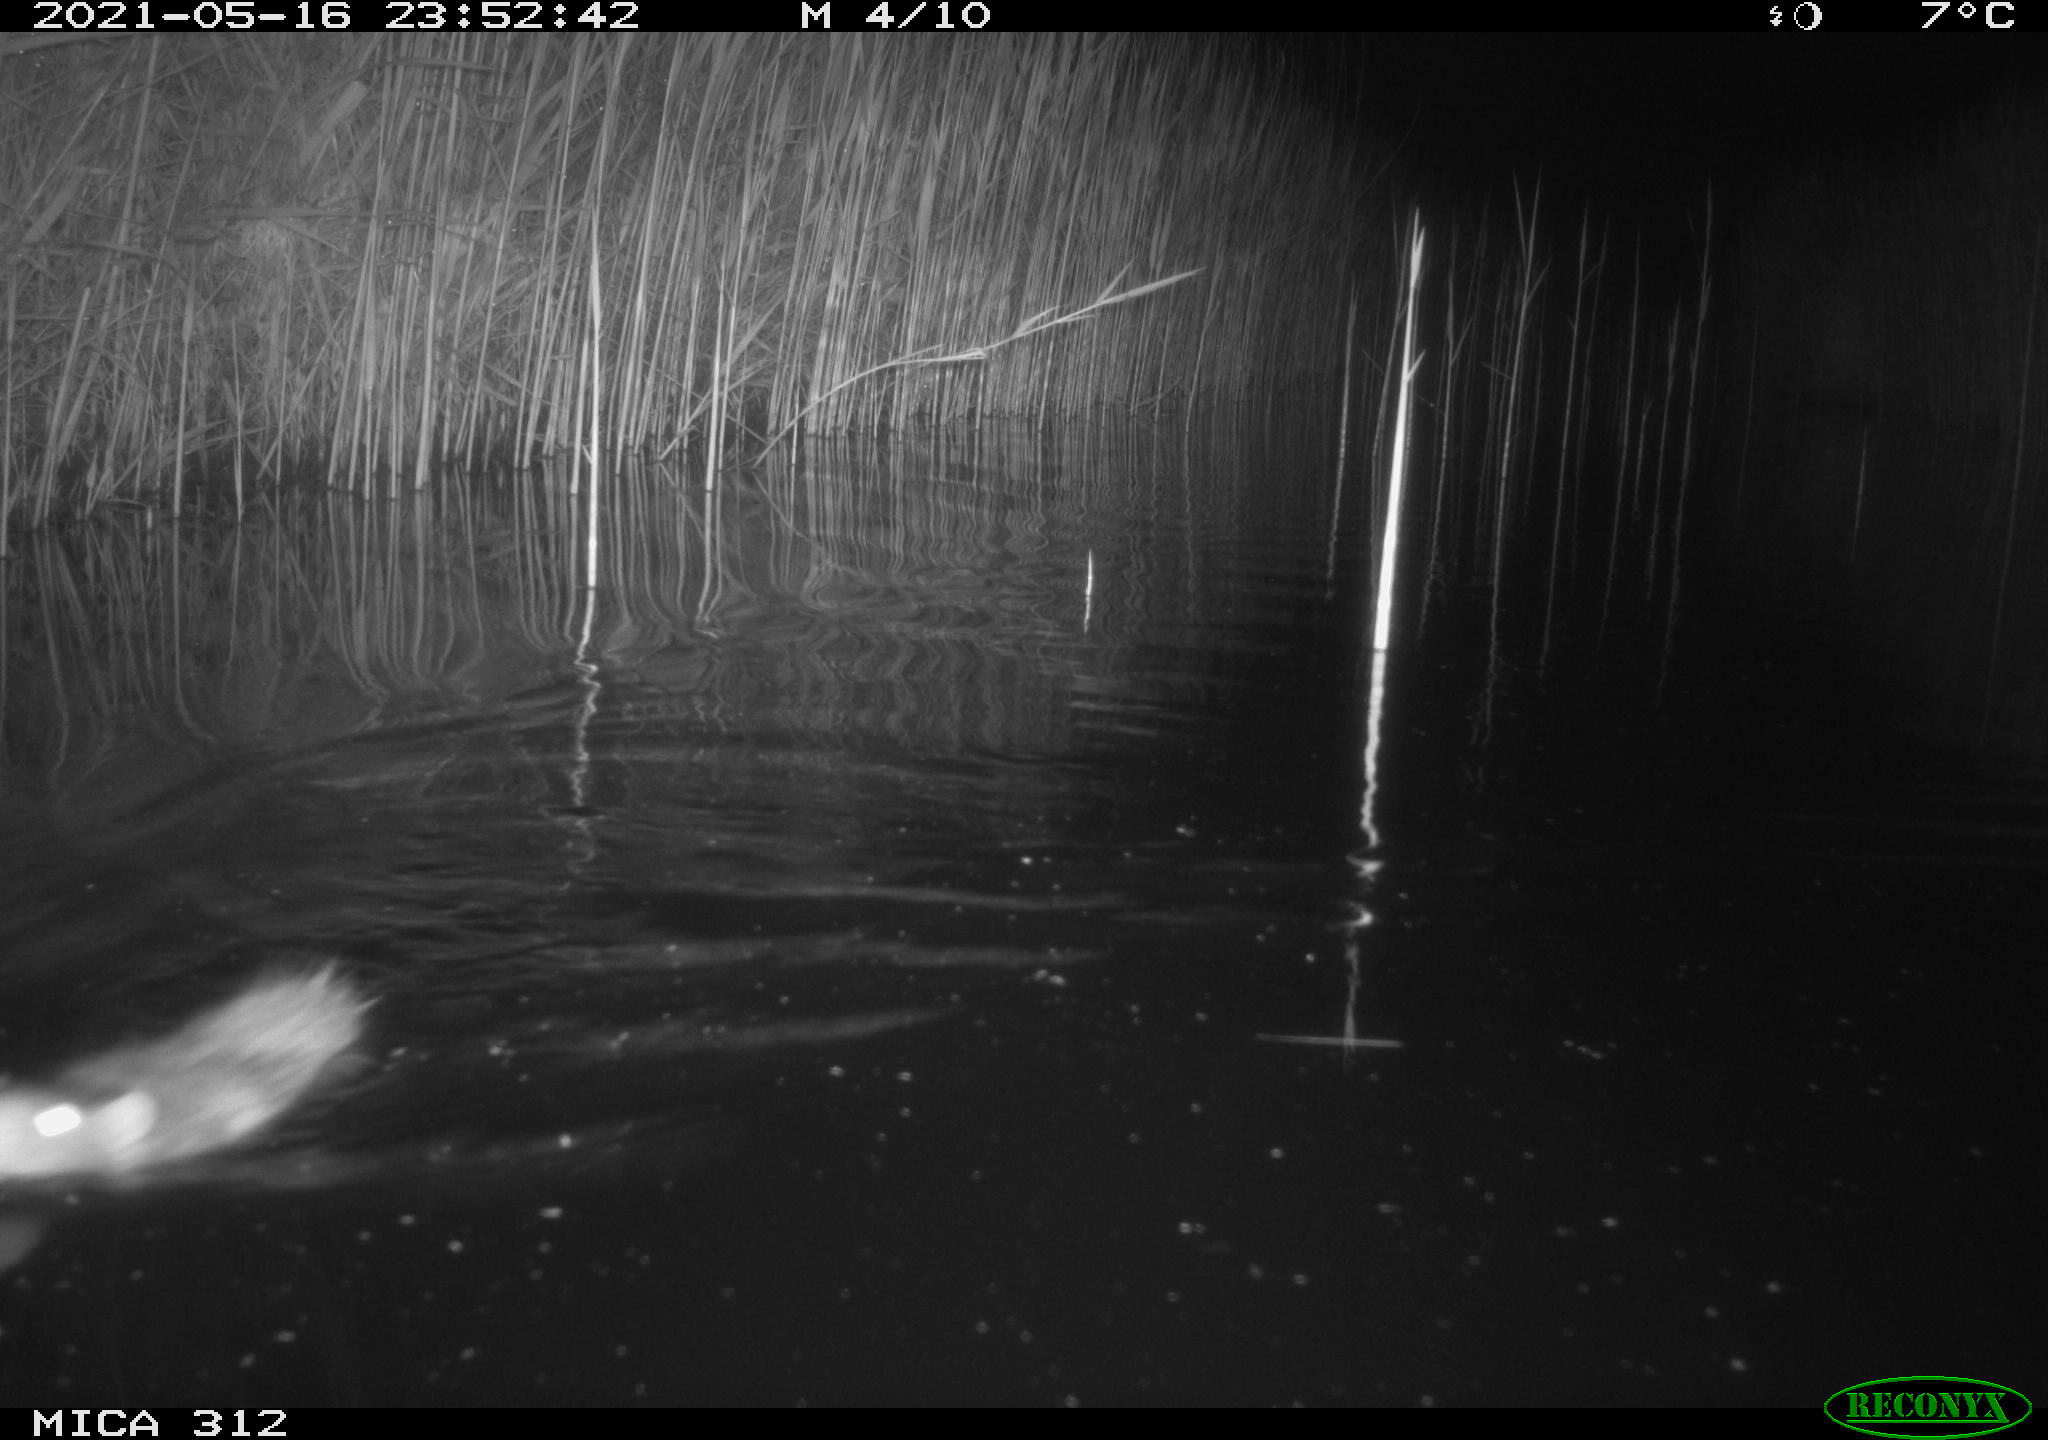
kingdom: Animalia
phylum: Chordata
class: Mammalia
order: Rodentia
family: Muridae
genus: Rattus
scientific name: Rattus norvegicus
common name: Brown rat
